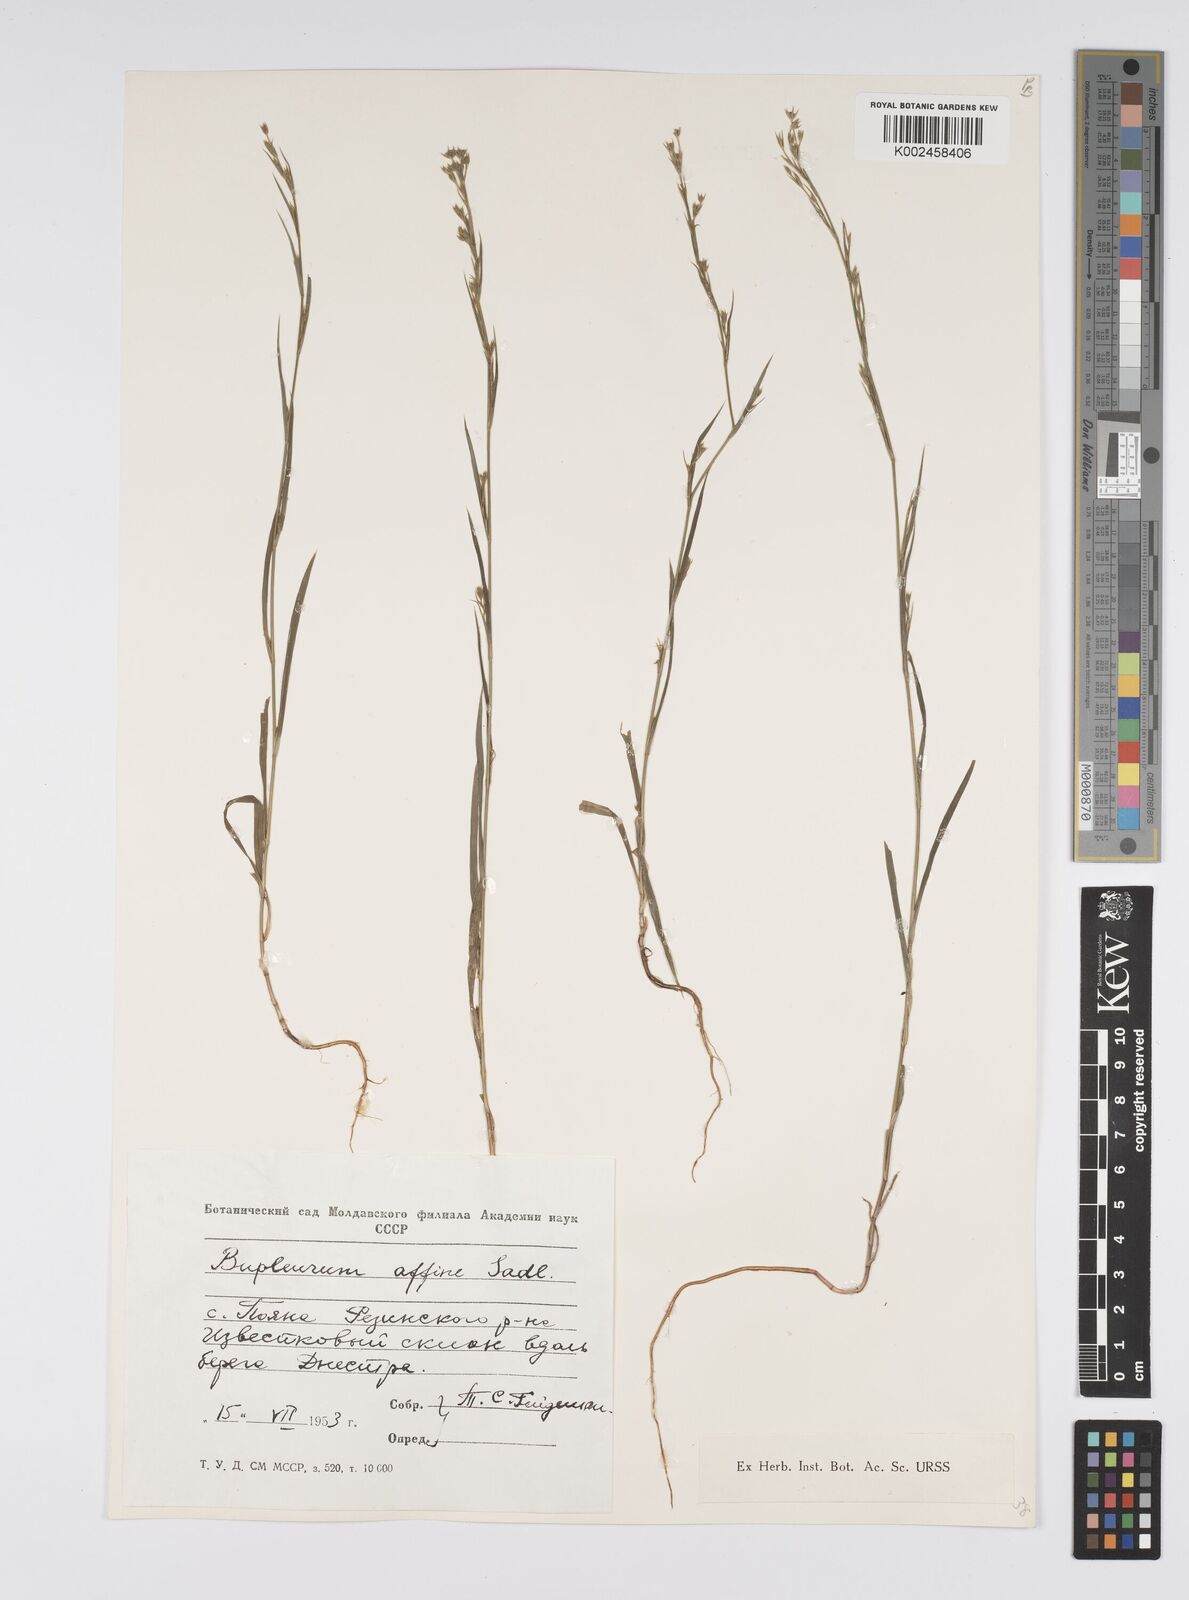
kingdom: Plantae
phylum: Tracheophyta
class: Magnoliopsida
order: Apiales
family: Apiaceae
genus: Bupleurum
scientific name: Bupleurum affine
